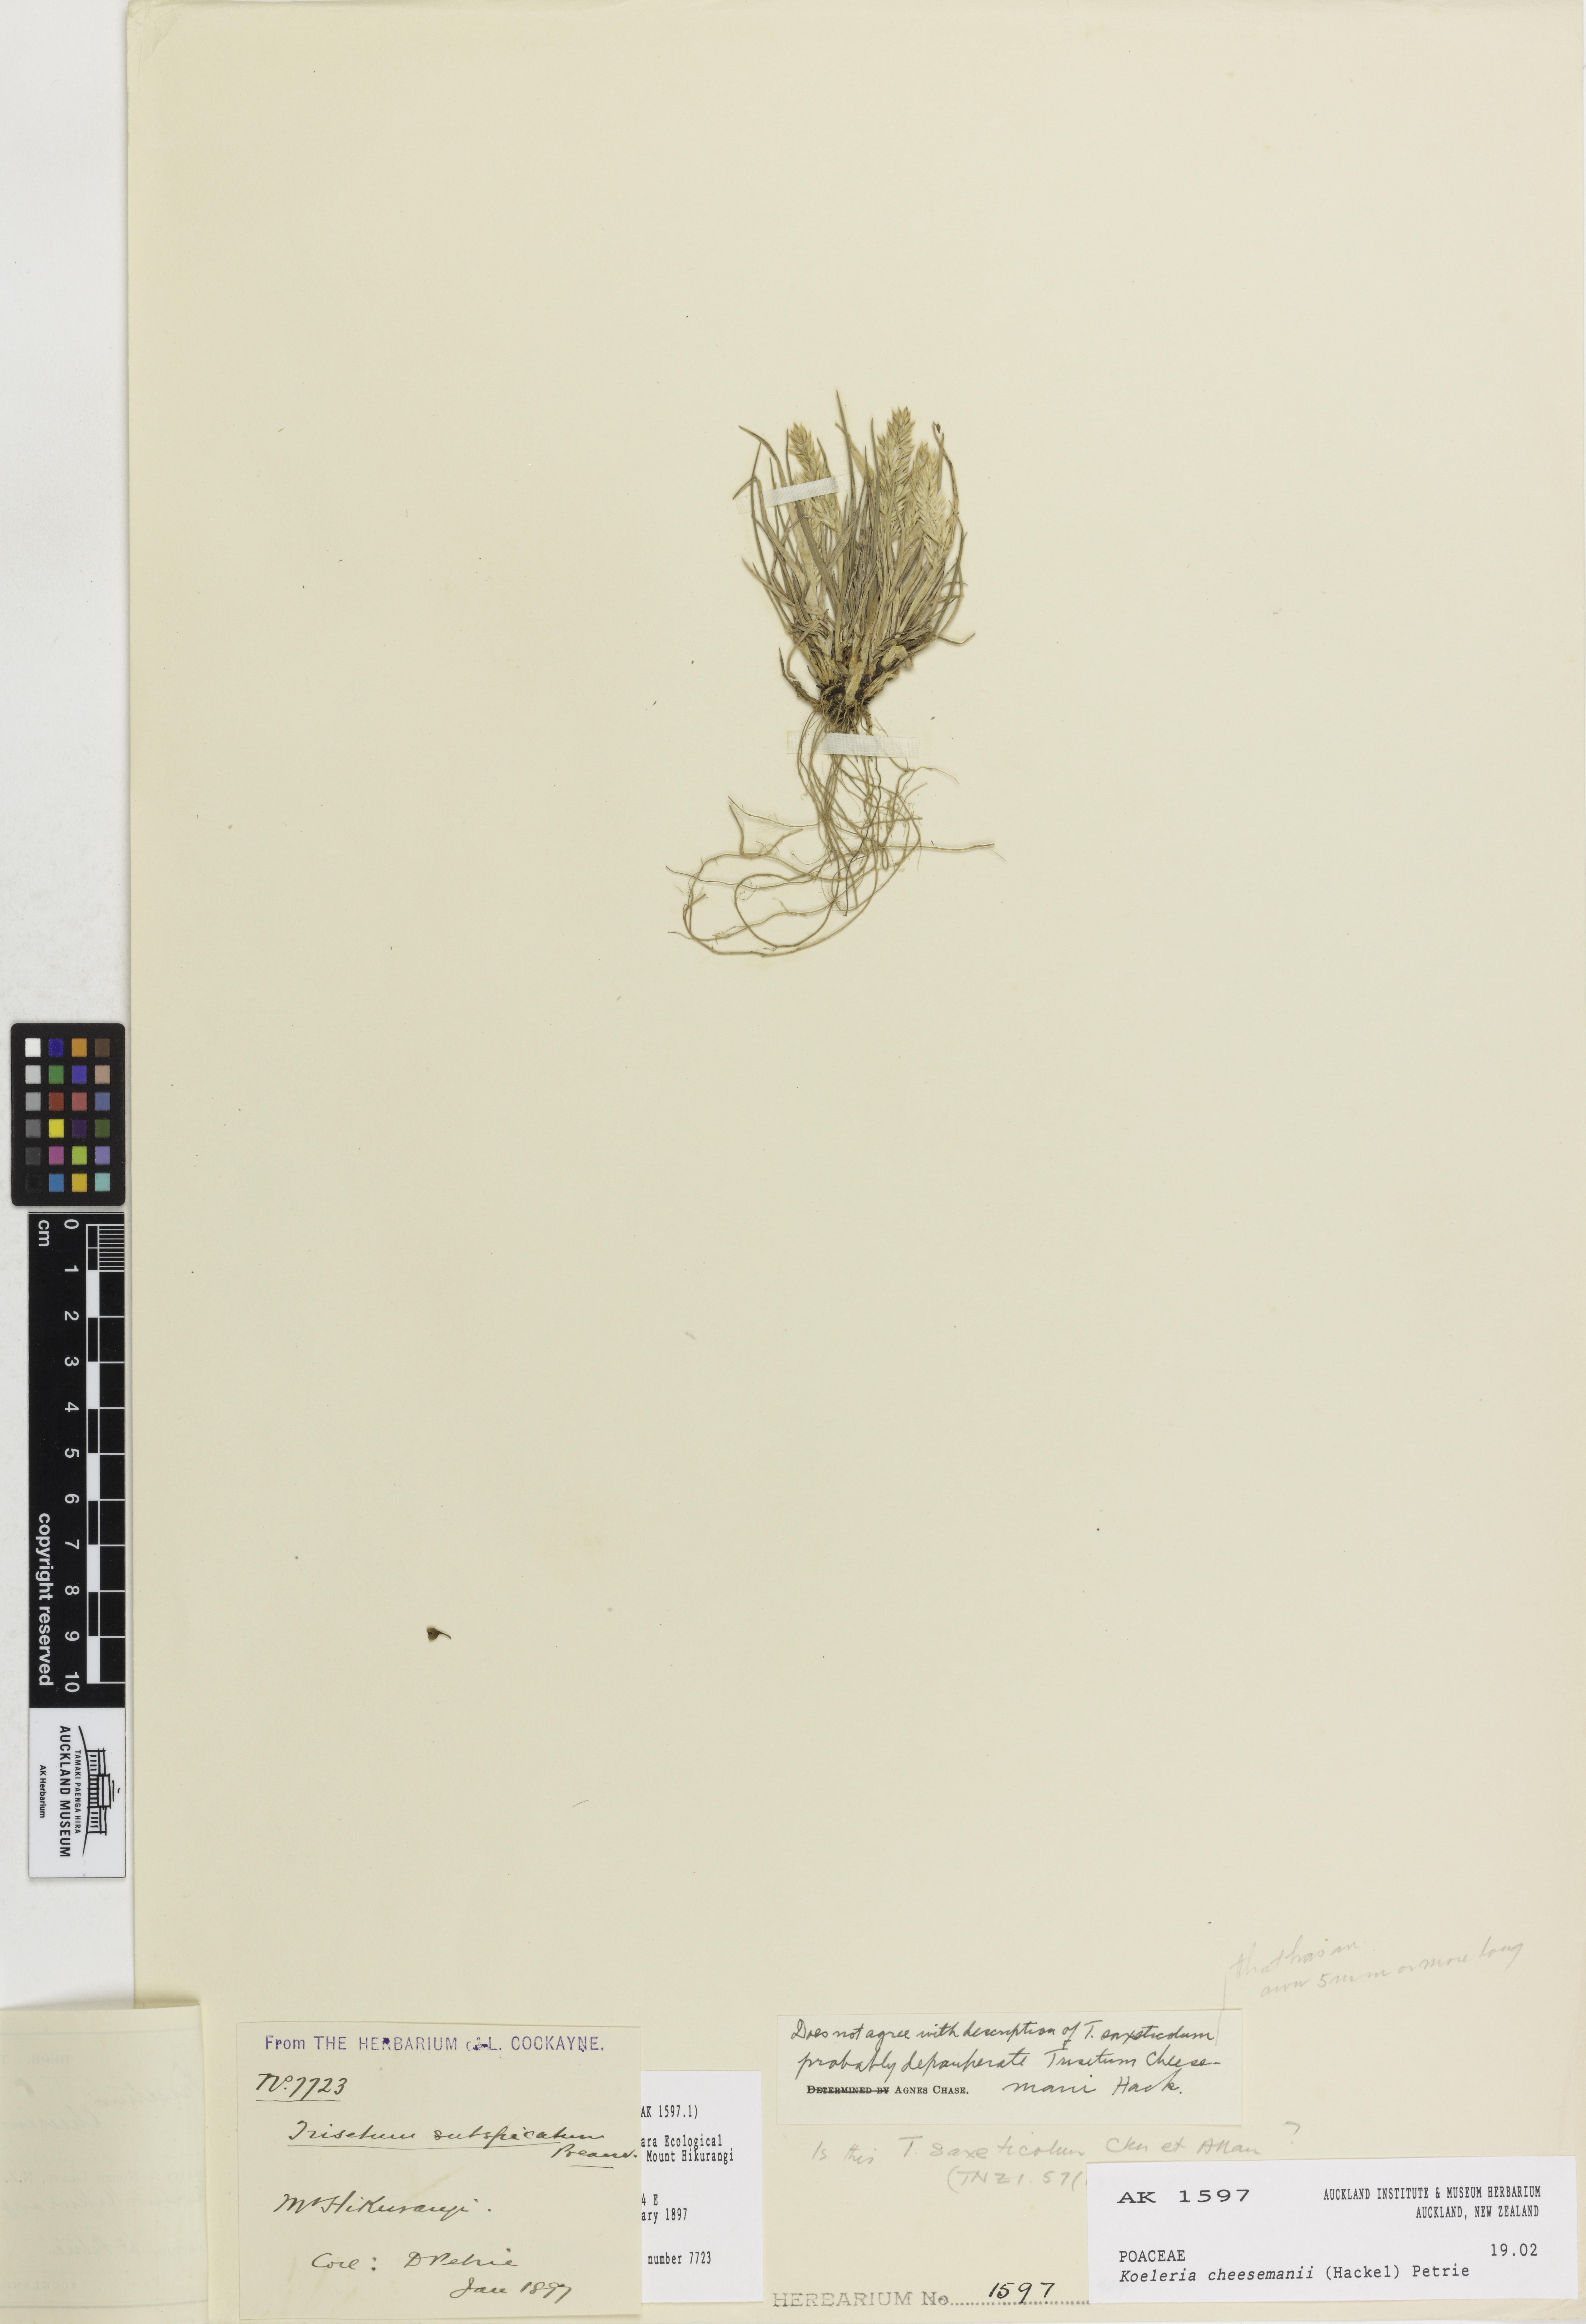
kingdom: Plantae
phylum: Tracheophyta
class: Liliopsida
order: Poales
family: Poaceae
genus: Koeleria
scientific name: Koeleria cheesemanii
